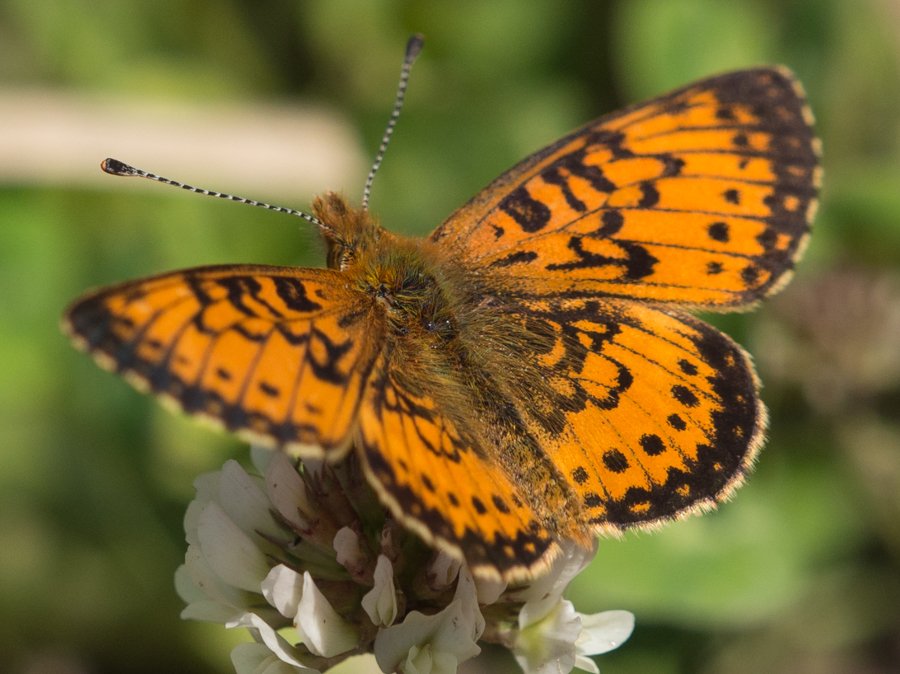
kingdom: Animalia
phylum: Arthropoda
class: Insecta
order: Lepidoptera
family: Nymphalidae
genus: Boloria
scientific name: Boloria selene
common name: Silver-bordered Fritillary
